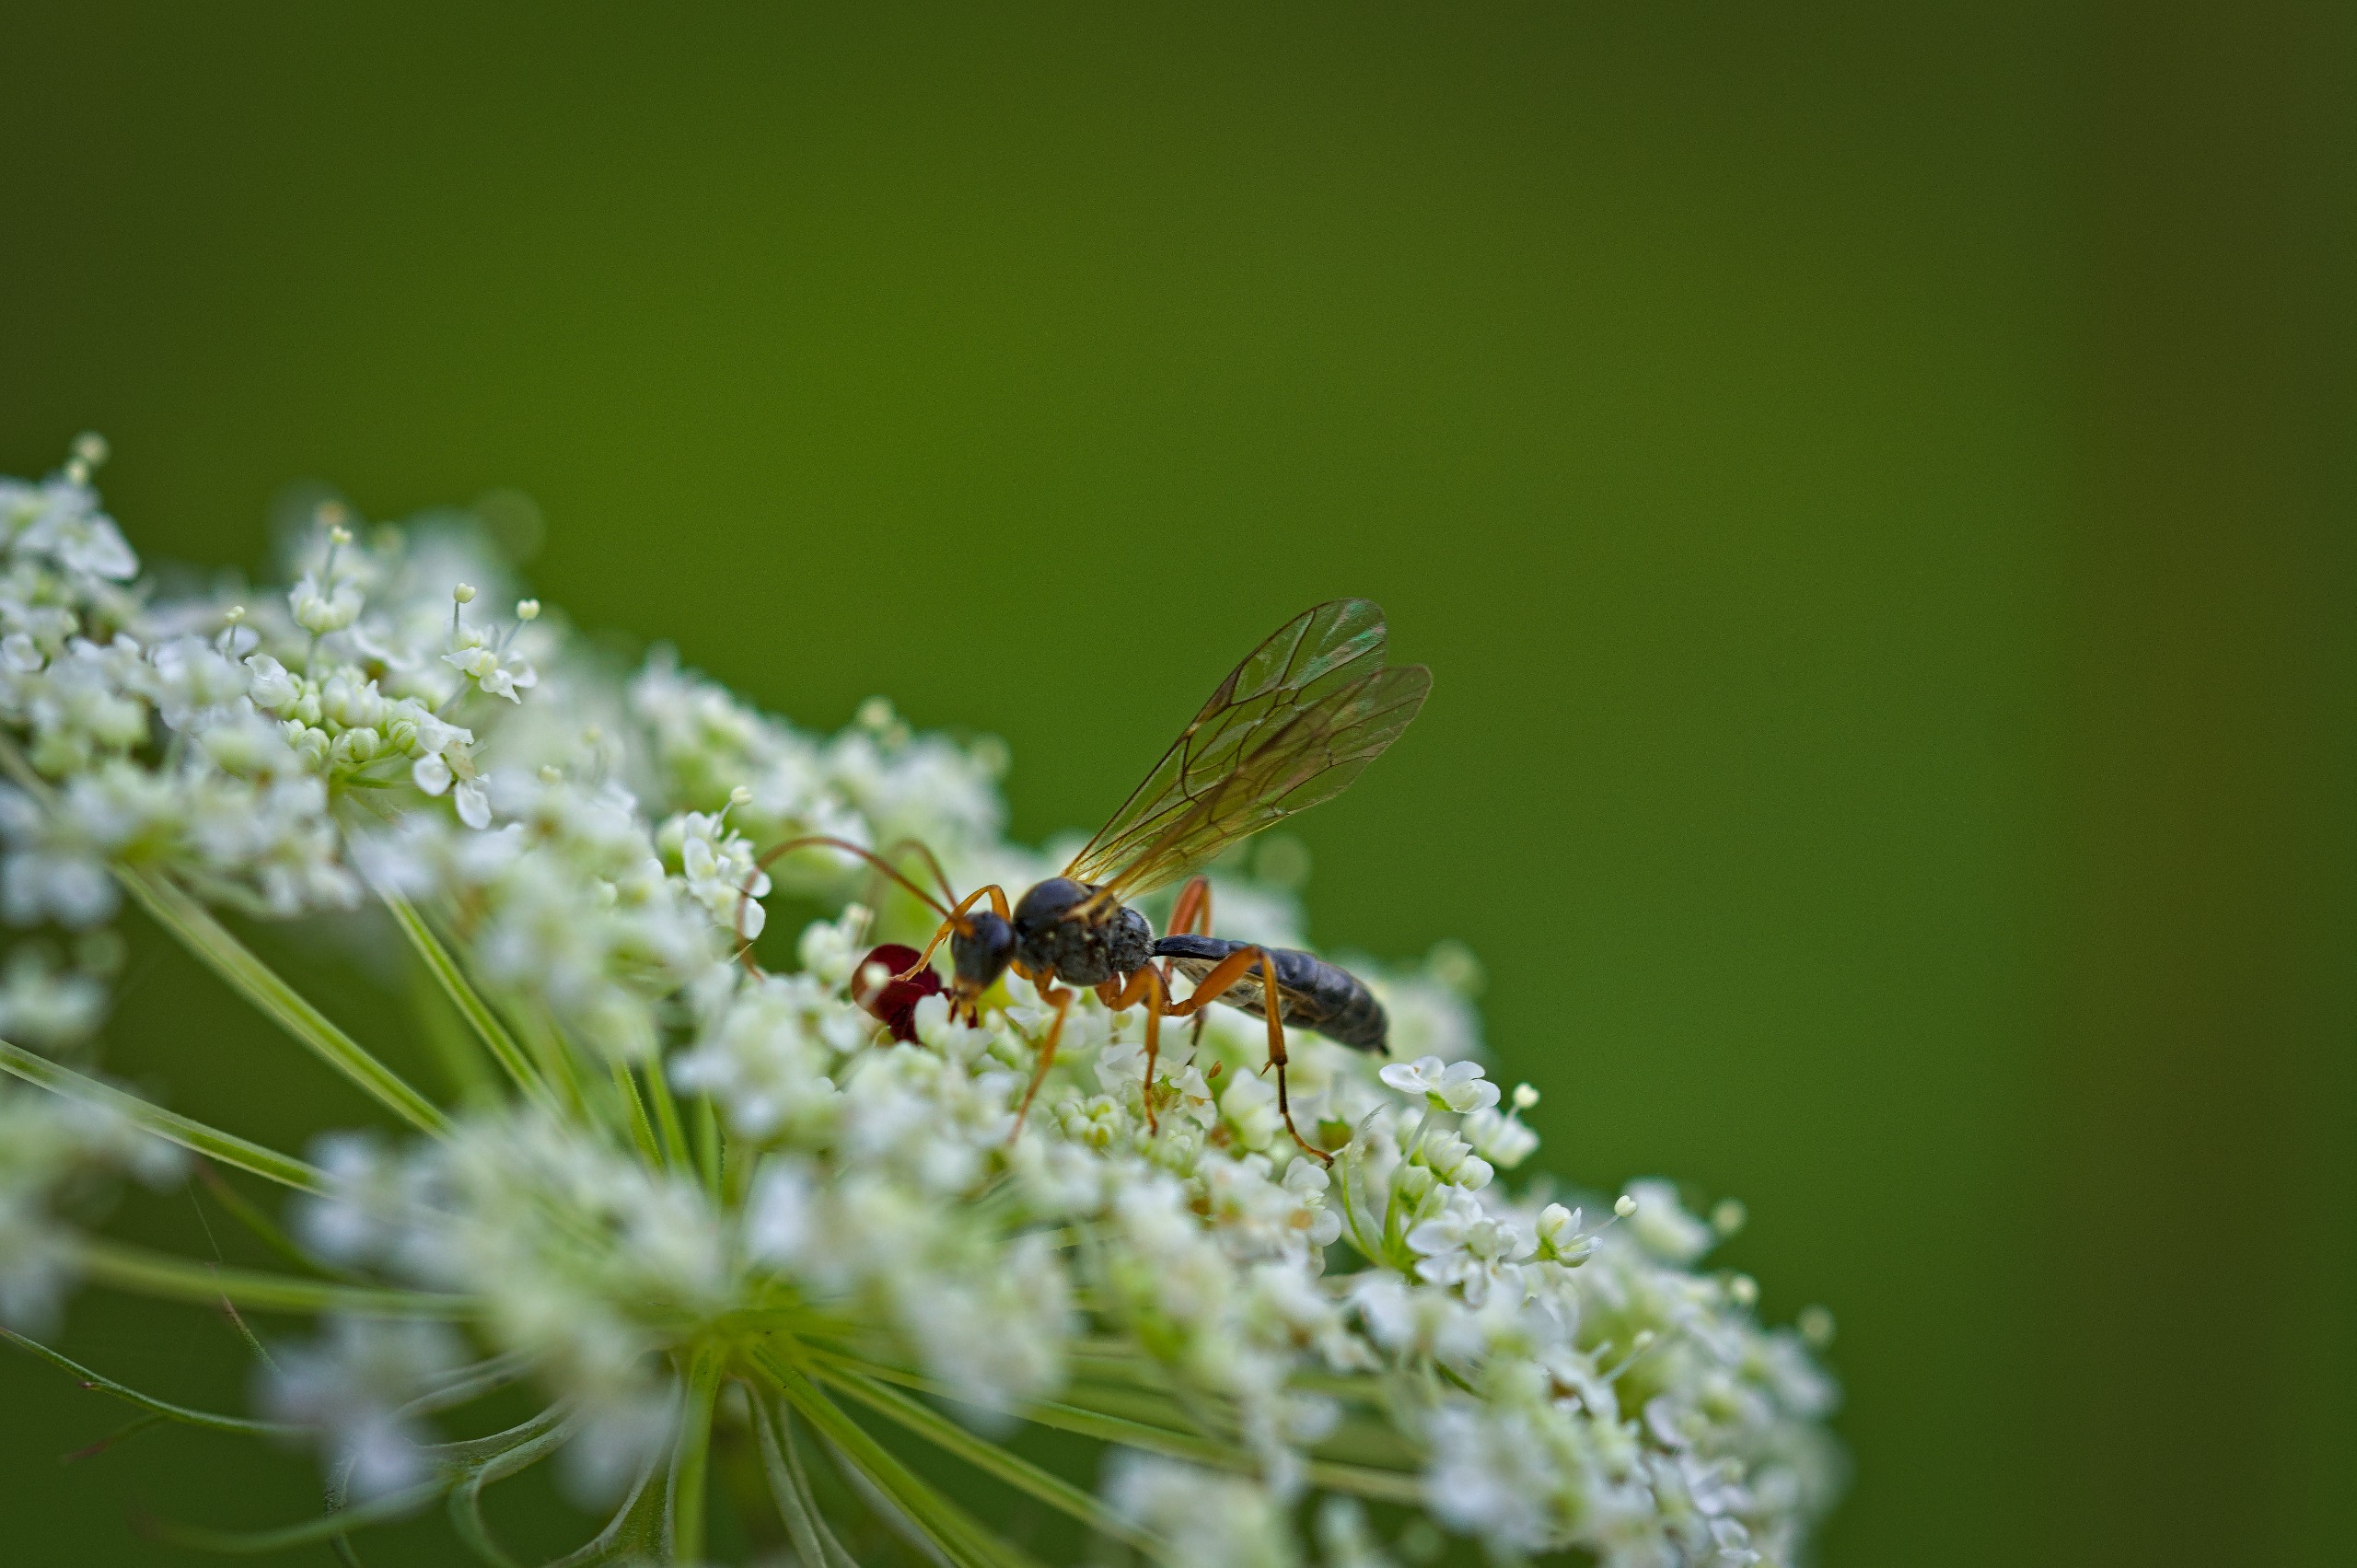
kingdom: Animalia
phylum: Arthropoda
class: Insecta
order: Hymenoptera
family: Ichneumonidae
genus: Dyspetes
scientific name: Dyspetes luteomarginatus
